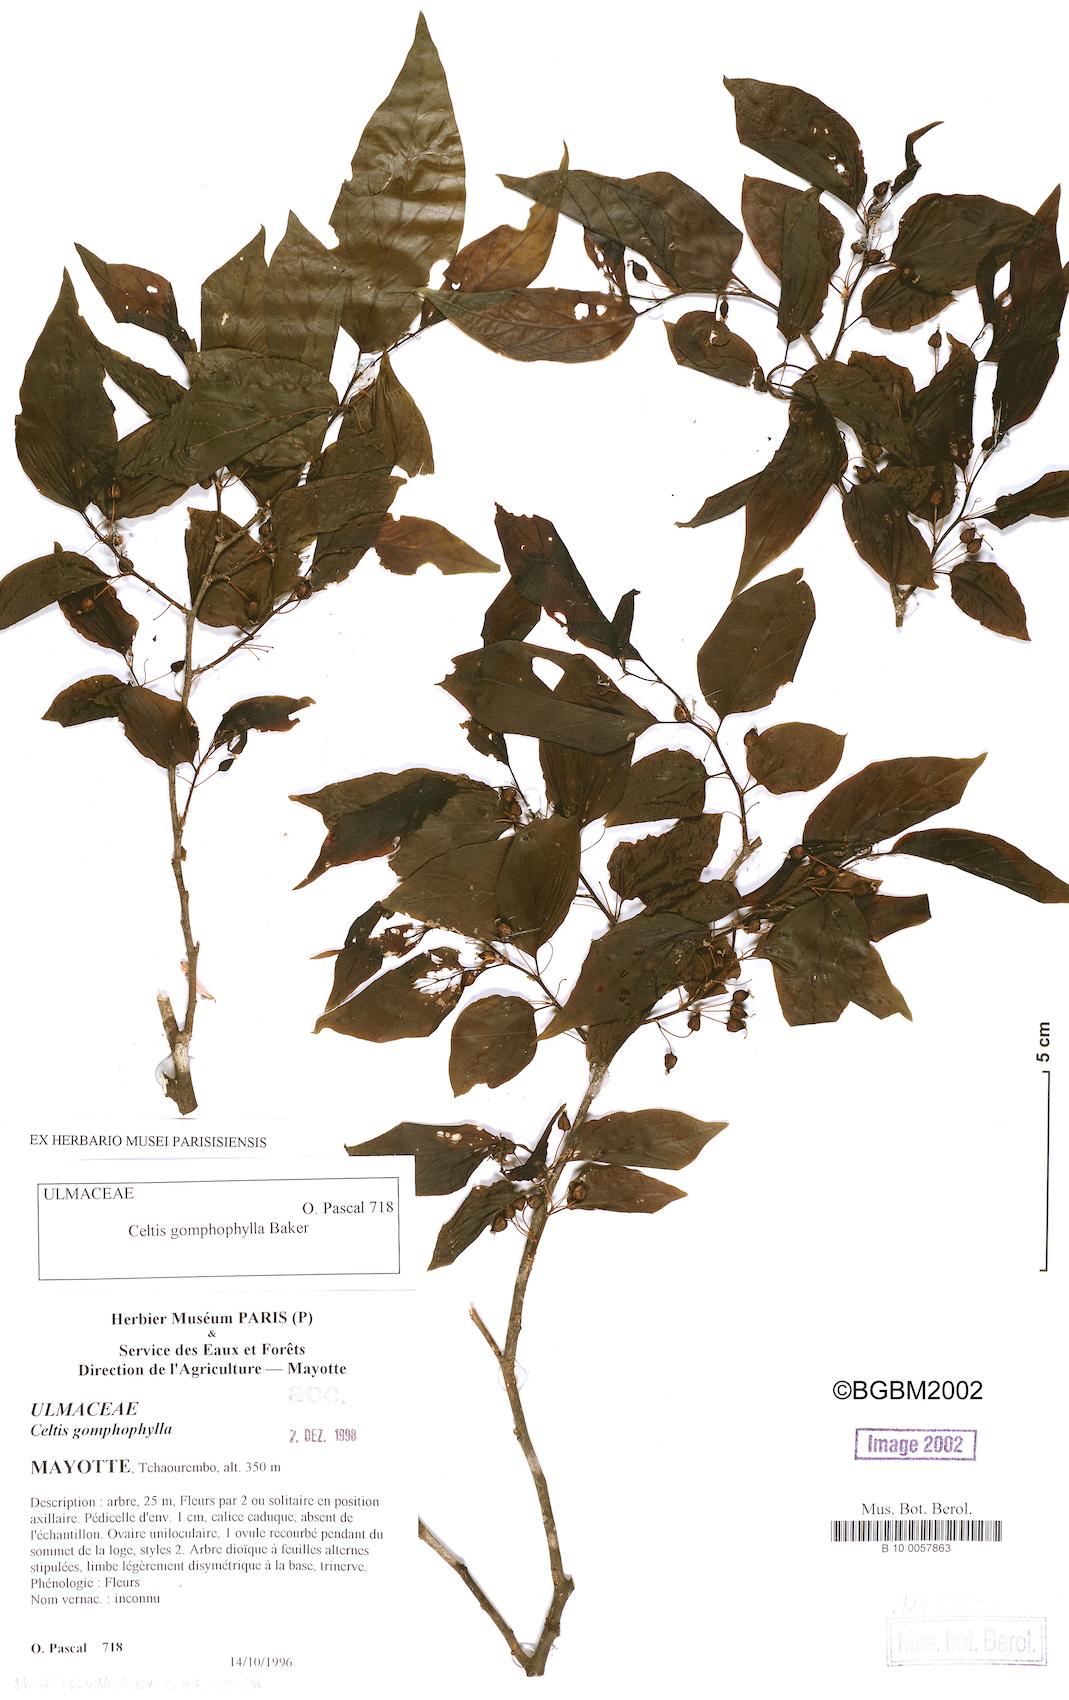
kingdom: Plantae
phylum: Tracheophyta
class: Magnoliopsida
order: Rosales
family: Cannabaceae
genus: Celtis
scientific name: Celtis gomphophylla
